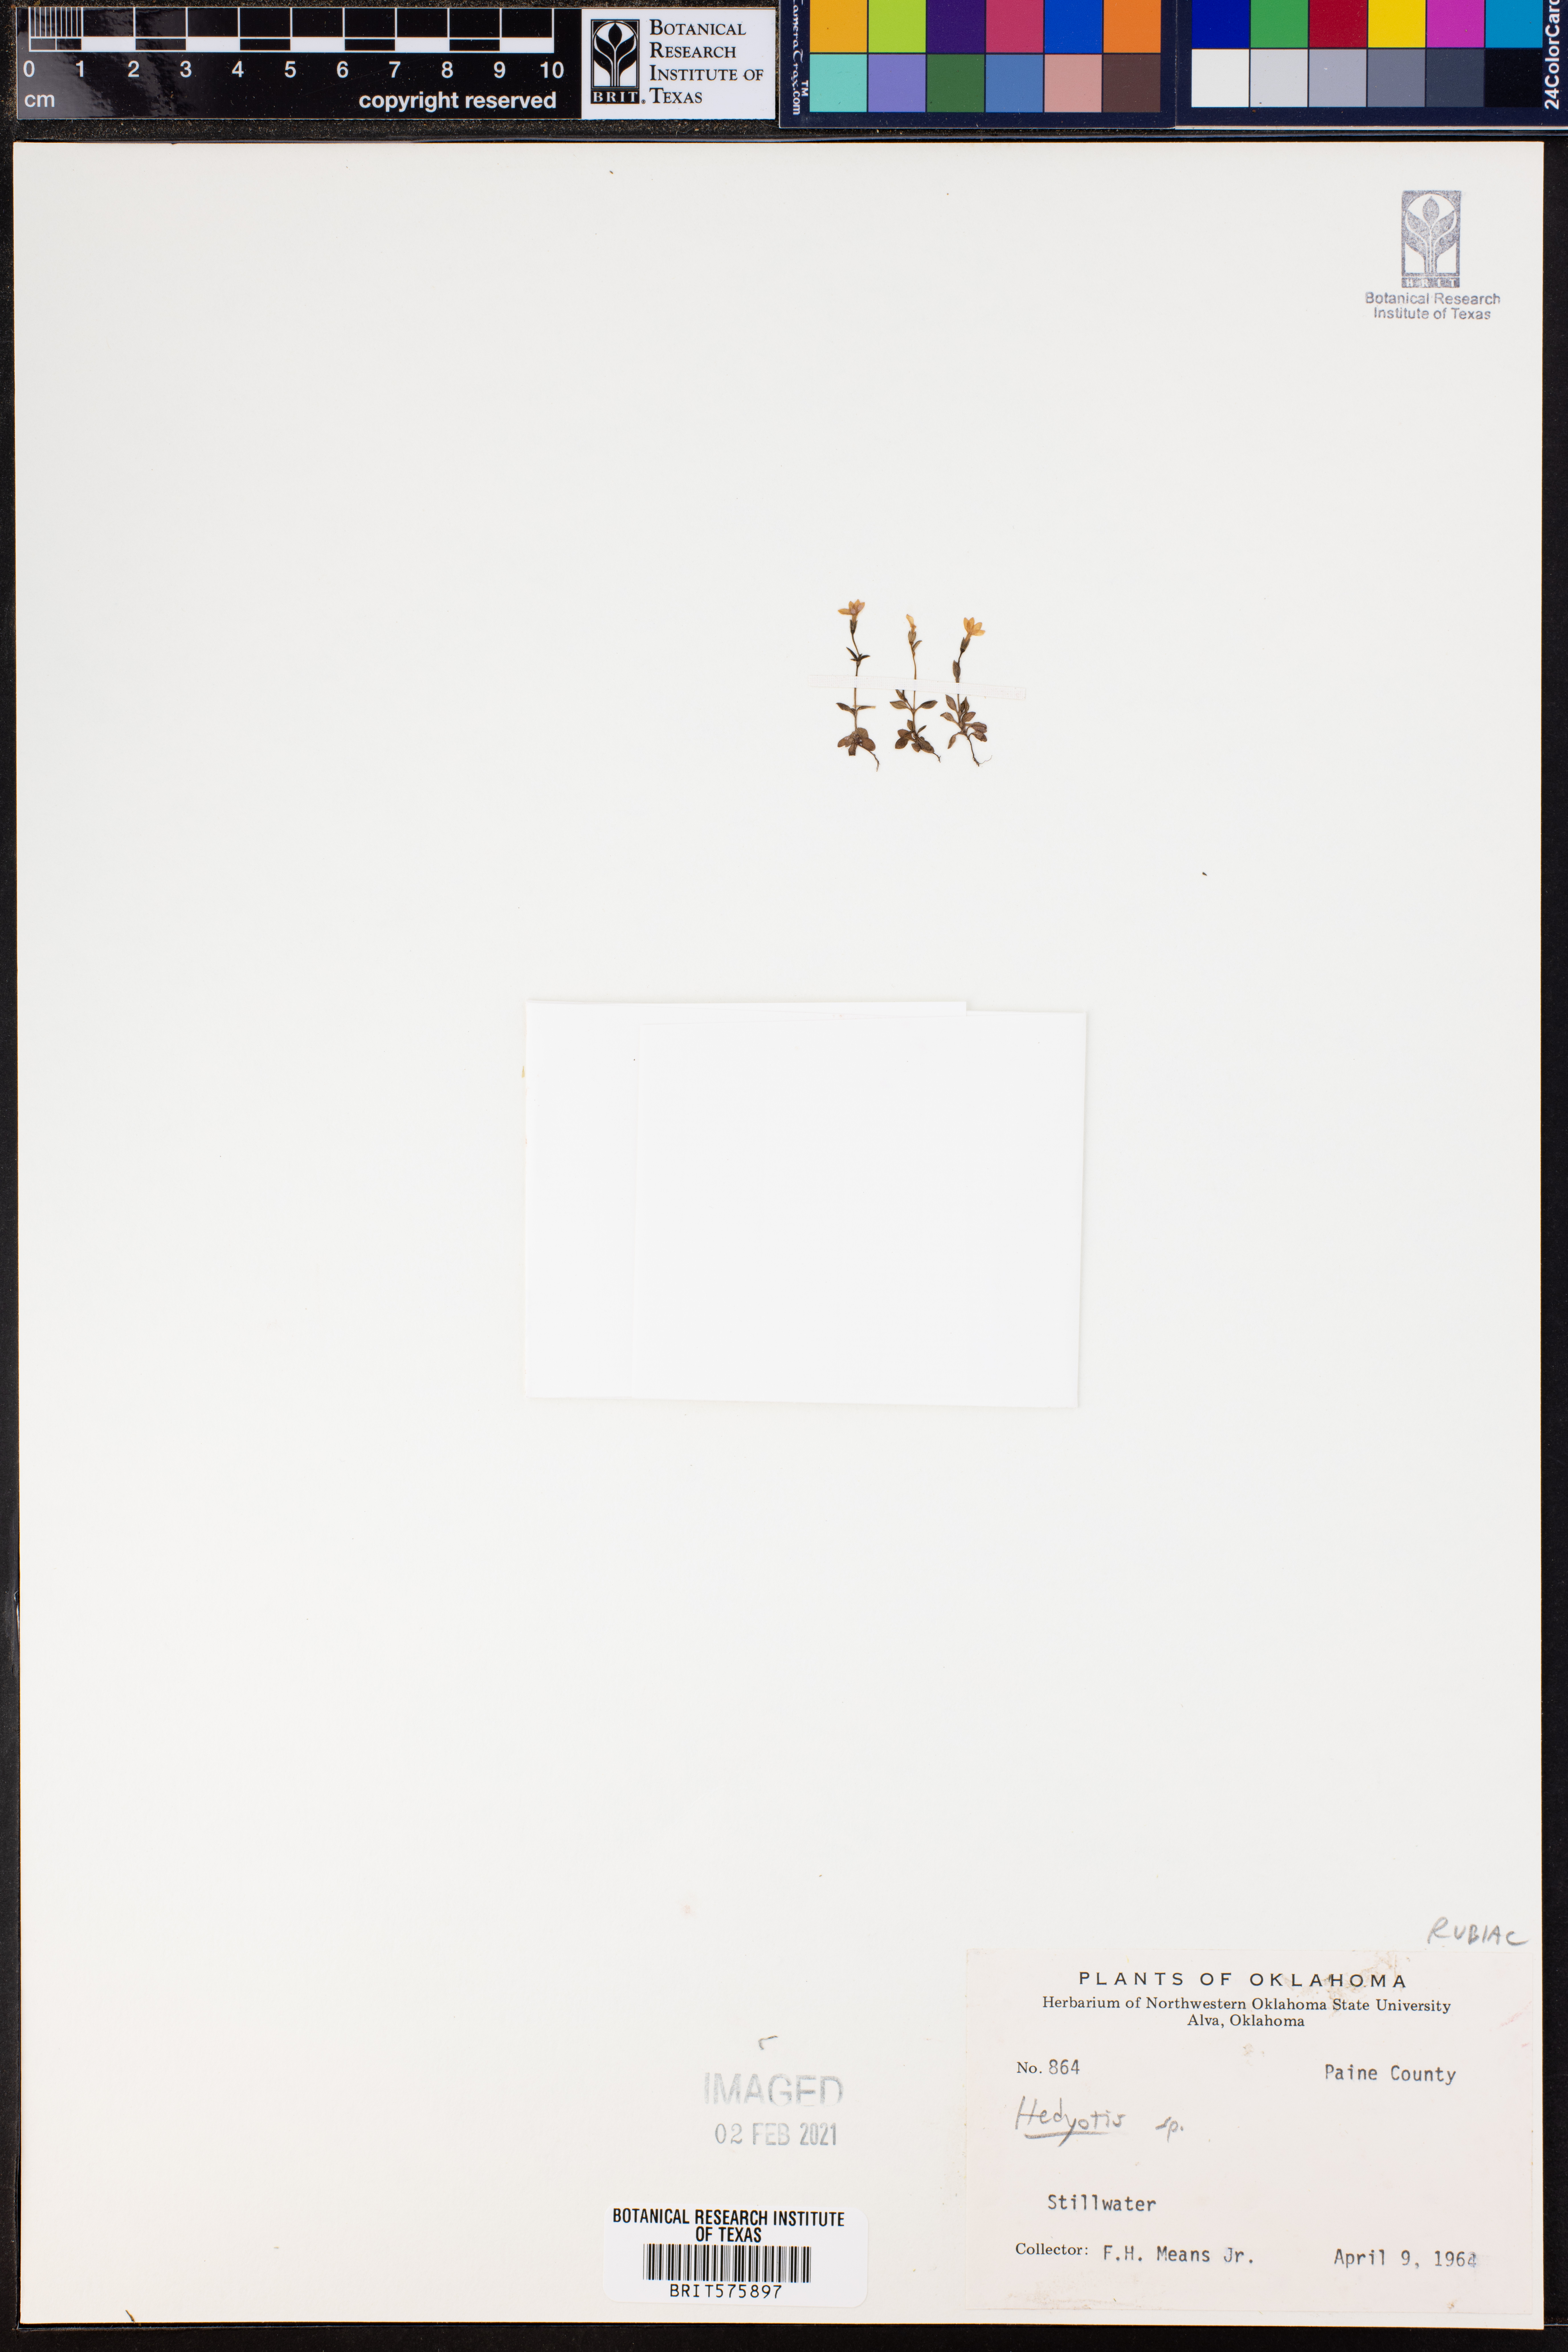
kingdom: Plantae
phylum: Tracheophyta
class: Magnoliopsida
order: Gentianales
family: Rubiaceae
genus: Hedyotis
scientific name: Hedyotis
